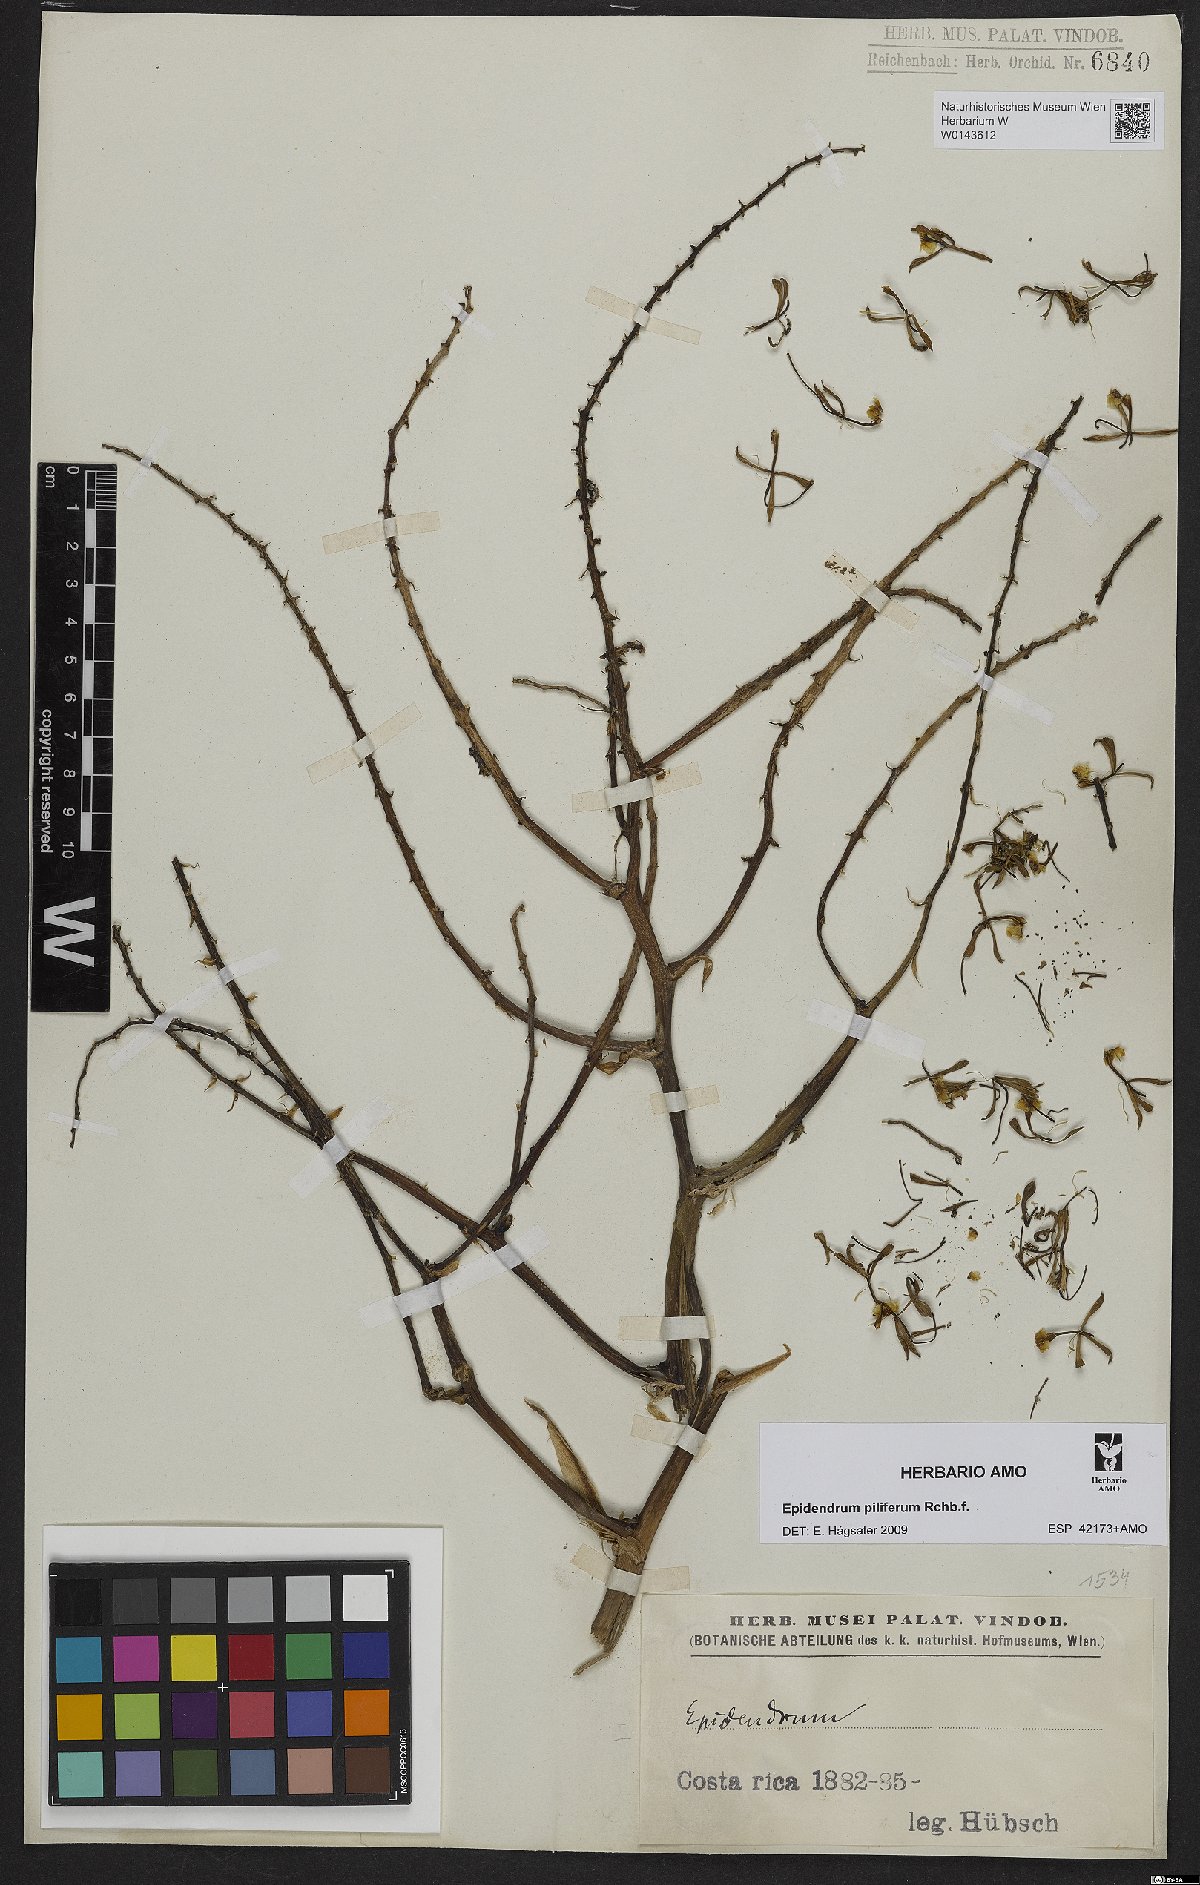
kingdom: Plantae
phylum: Tracheophyta
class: Liliopsida
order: Asparagales
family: Orchidaceae
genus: Epidendrum
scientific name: Epidendrum piliferum
